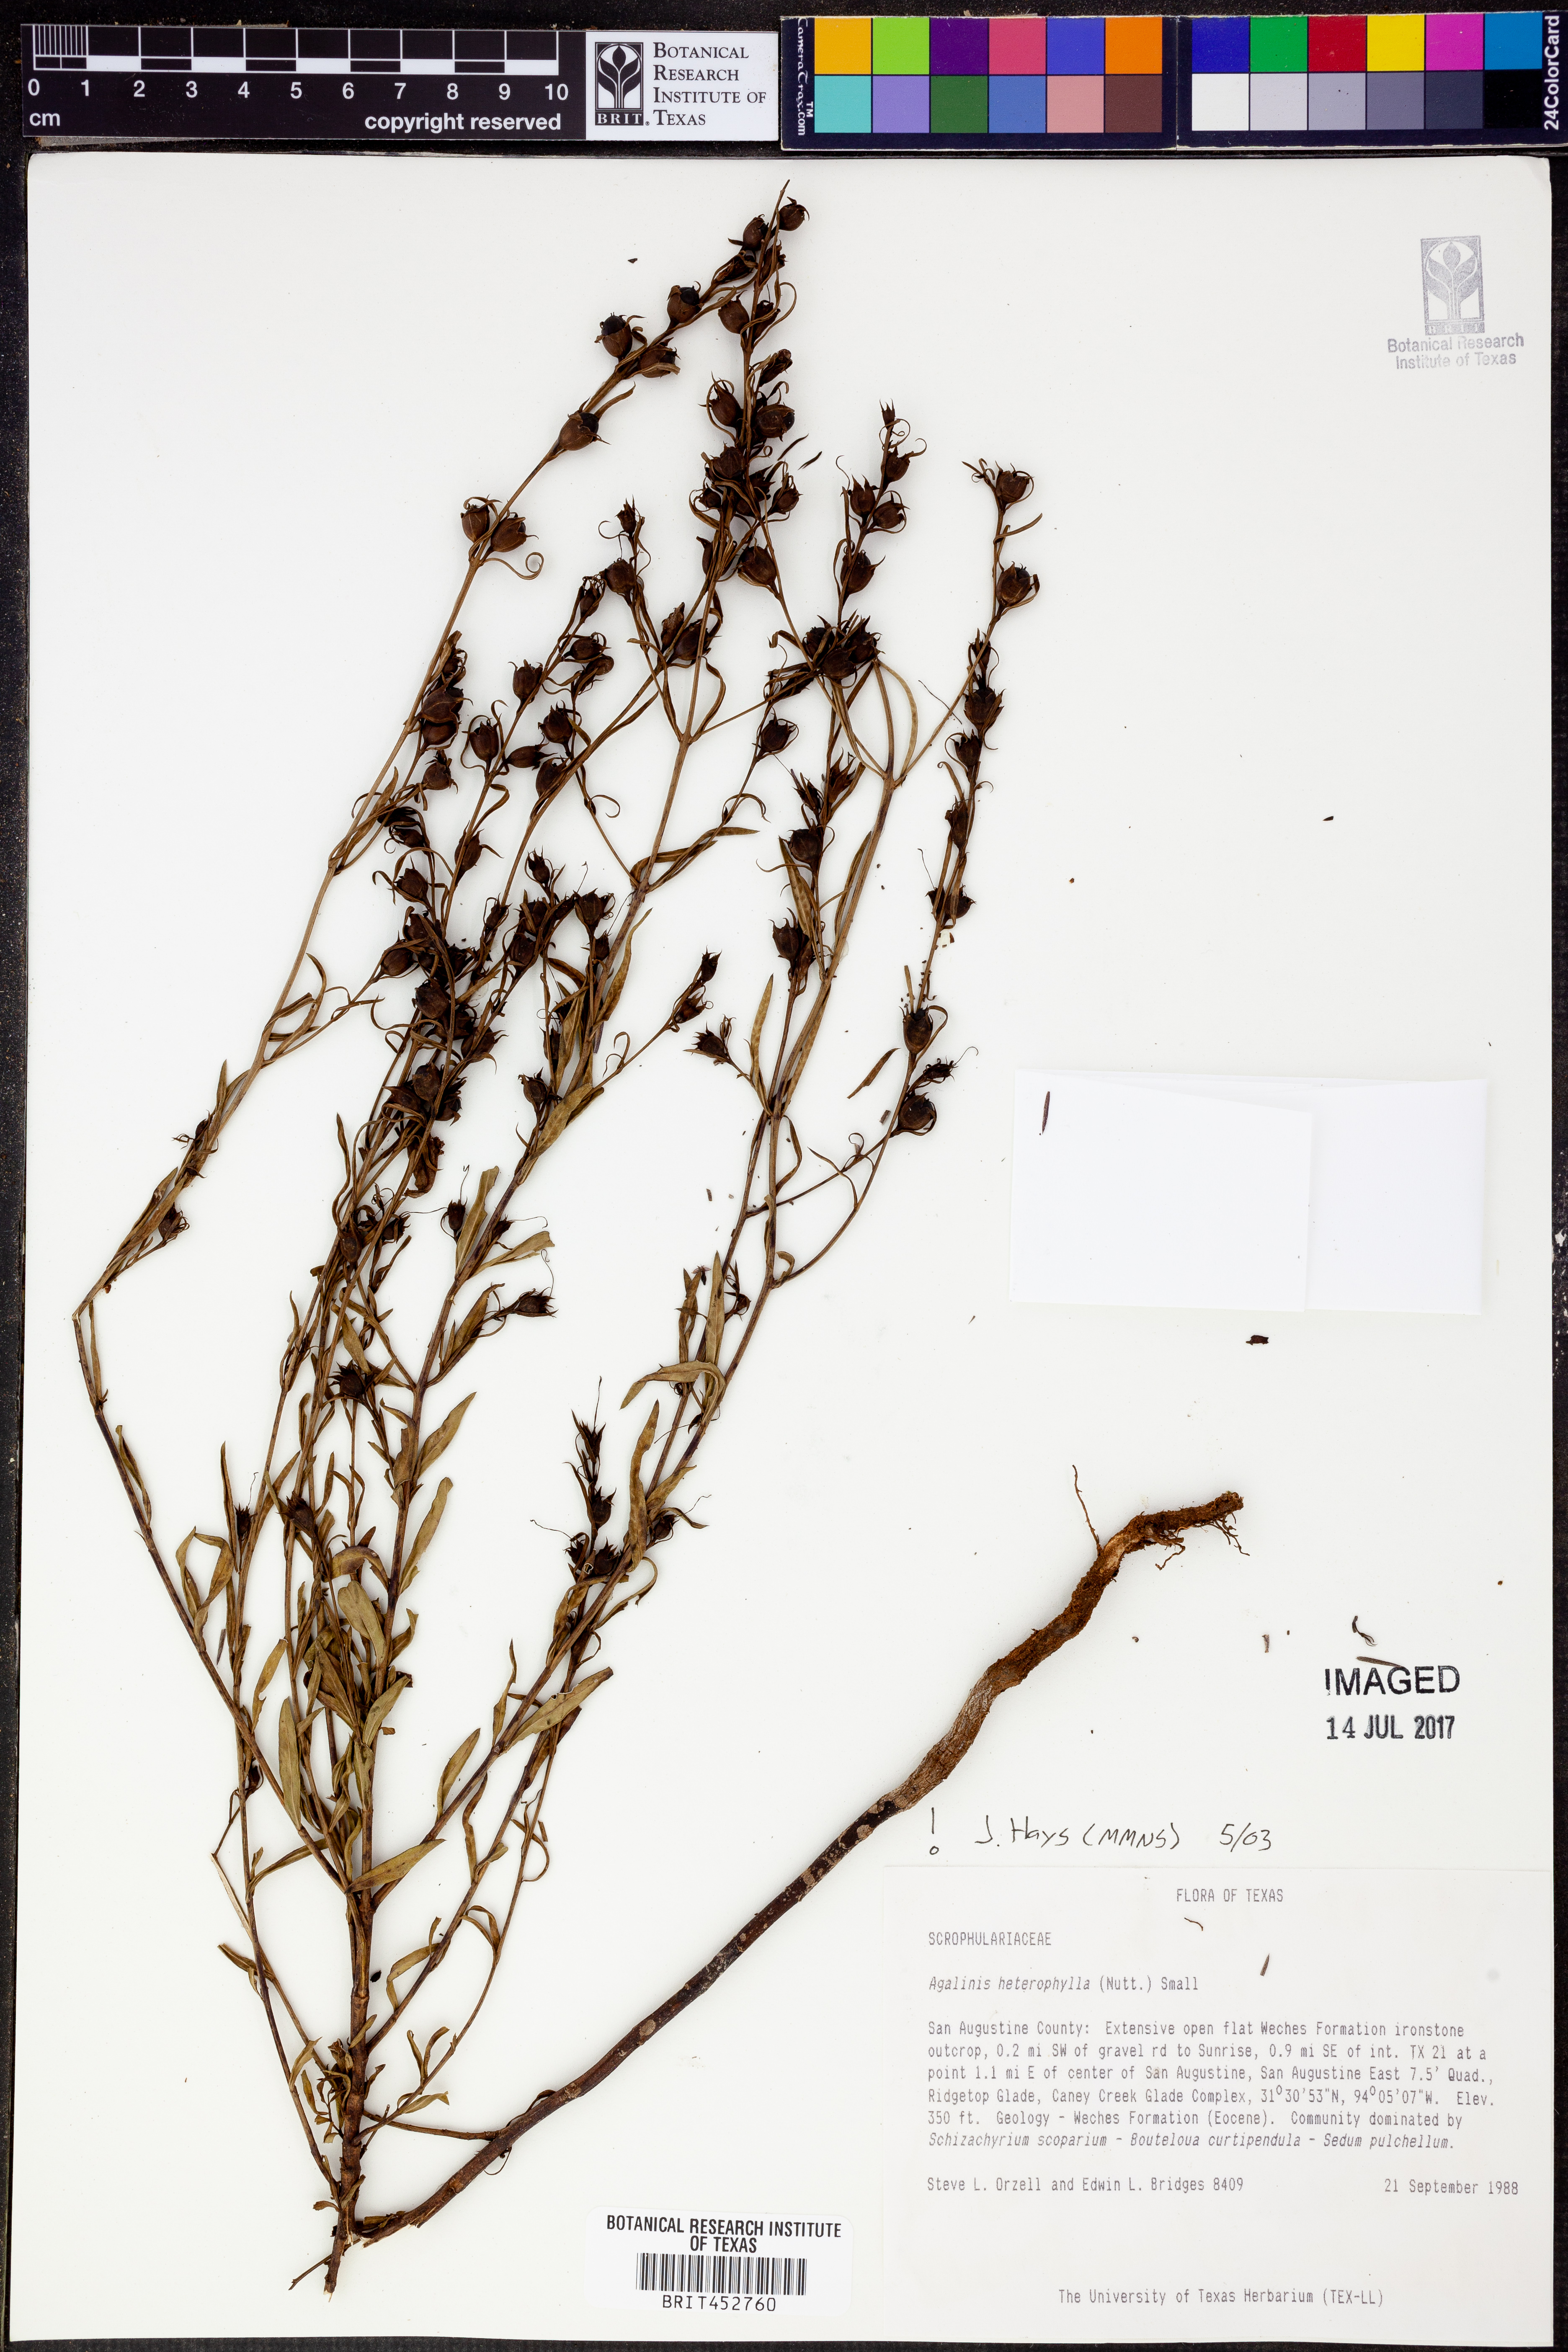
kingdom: Plantae
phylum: Tracheophyta
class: Magnoliopsida
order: Lamiales
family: Orobanchaceae
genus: Agalinis
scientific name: Agalinis heterophylla
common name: Prairie agalinis
